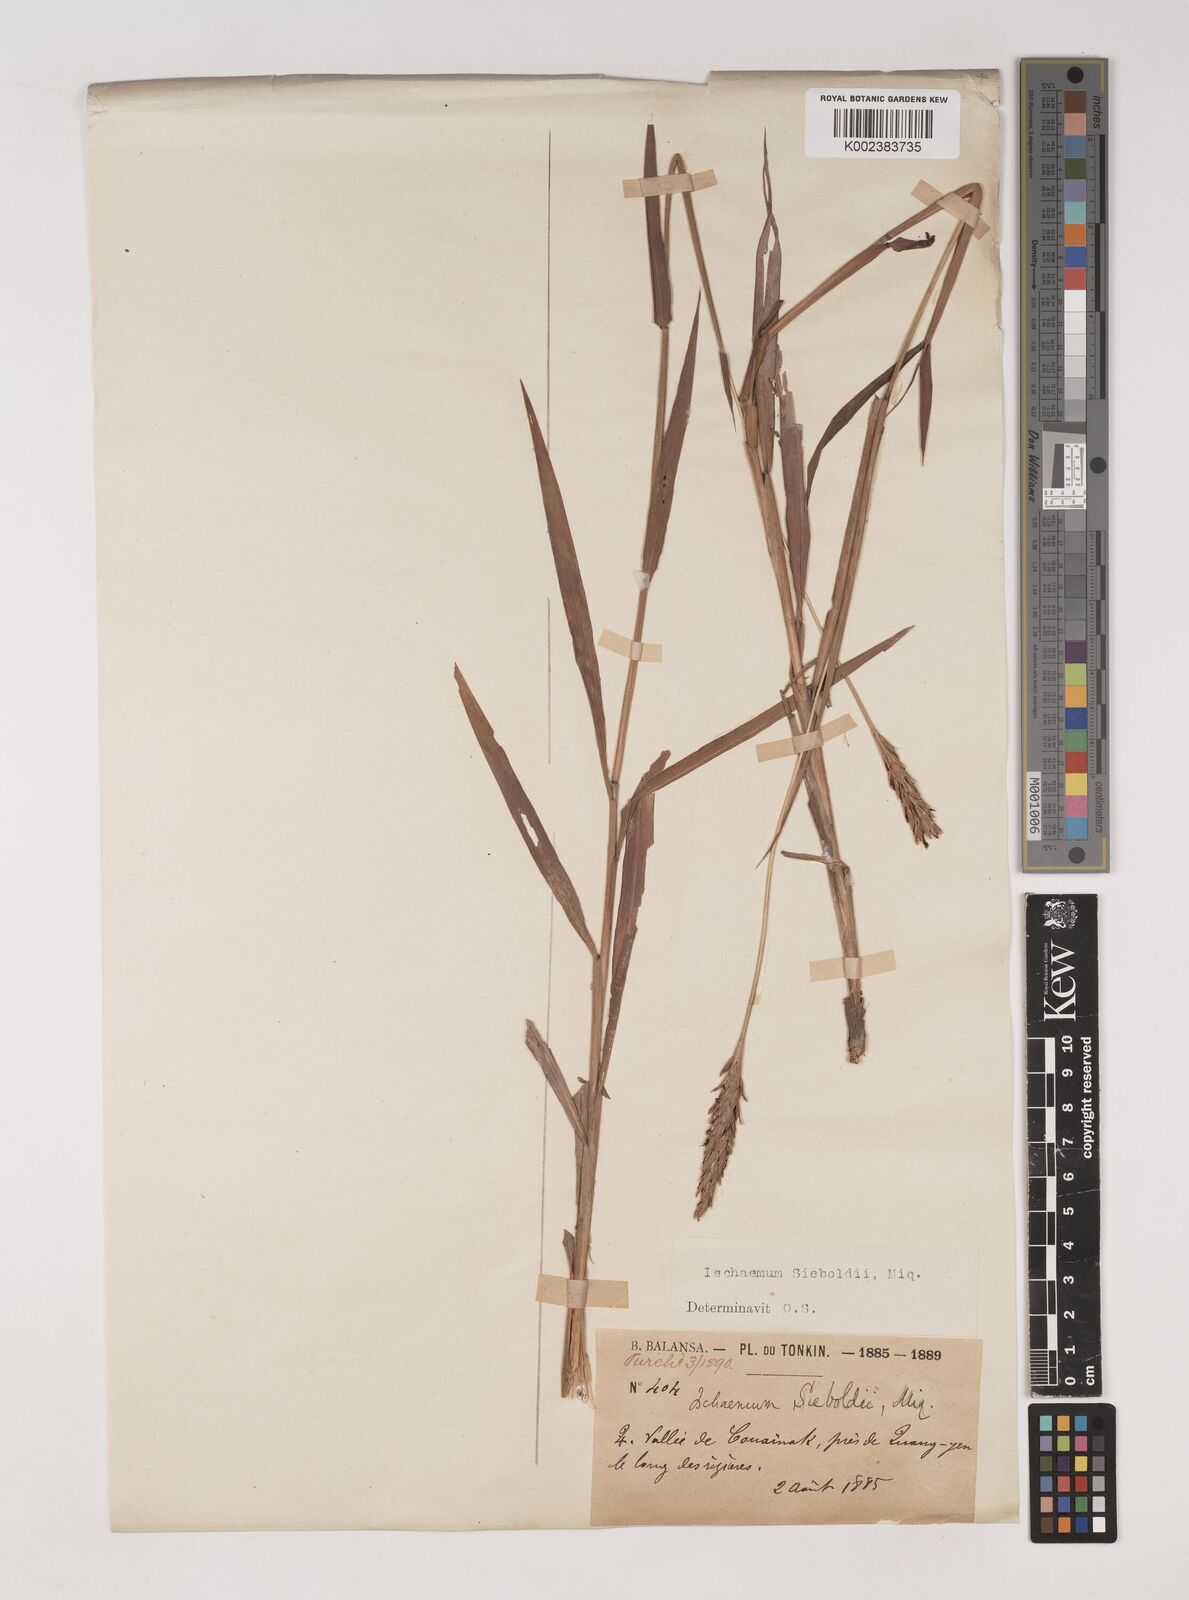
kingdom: Plantae
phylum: Tracheophyta
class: Liliopsida
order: Poales
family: Poaceae
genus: Ischaemum
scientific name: Ischaemum aristatum
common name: Toco grass
